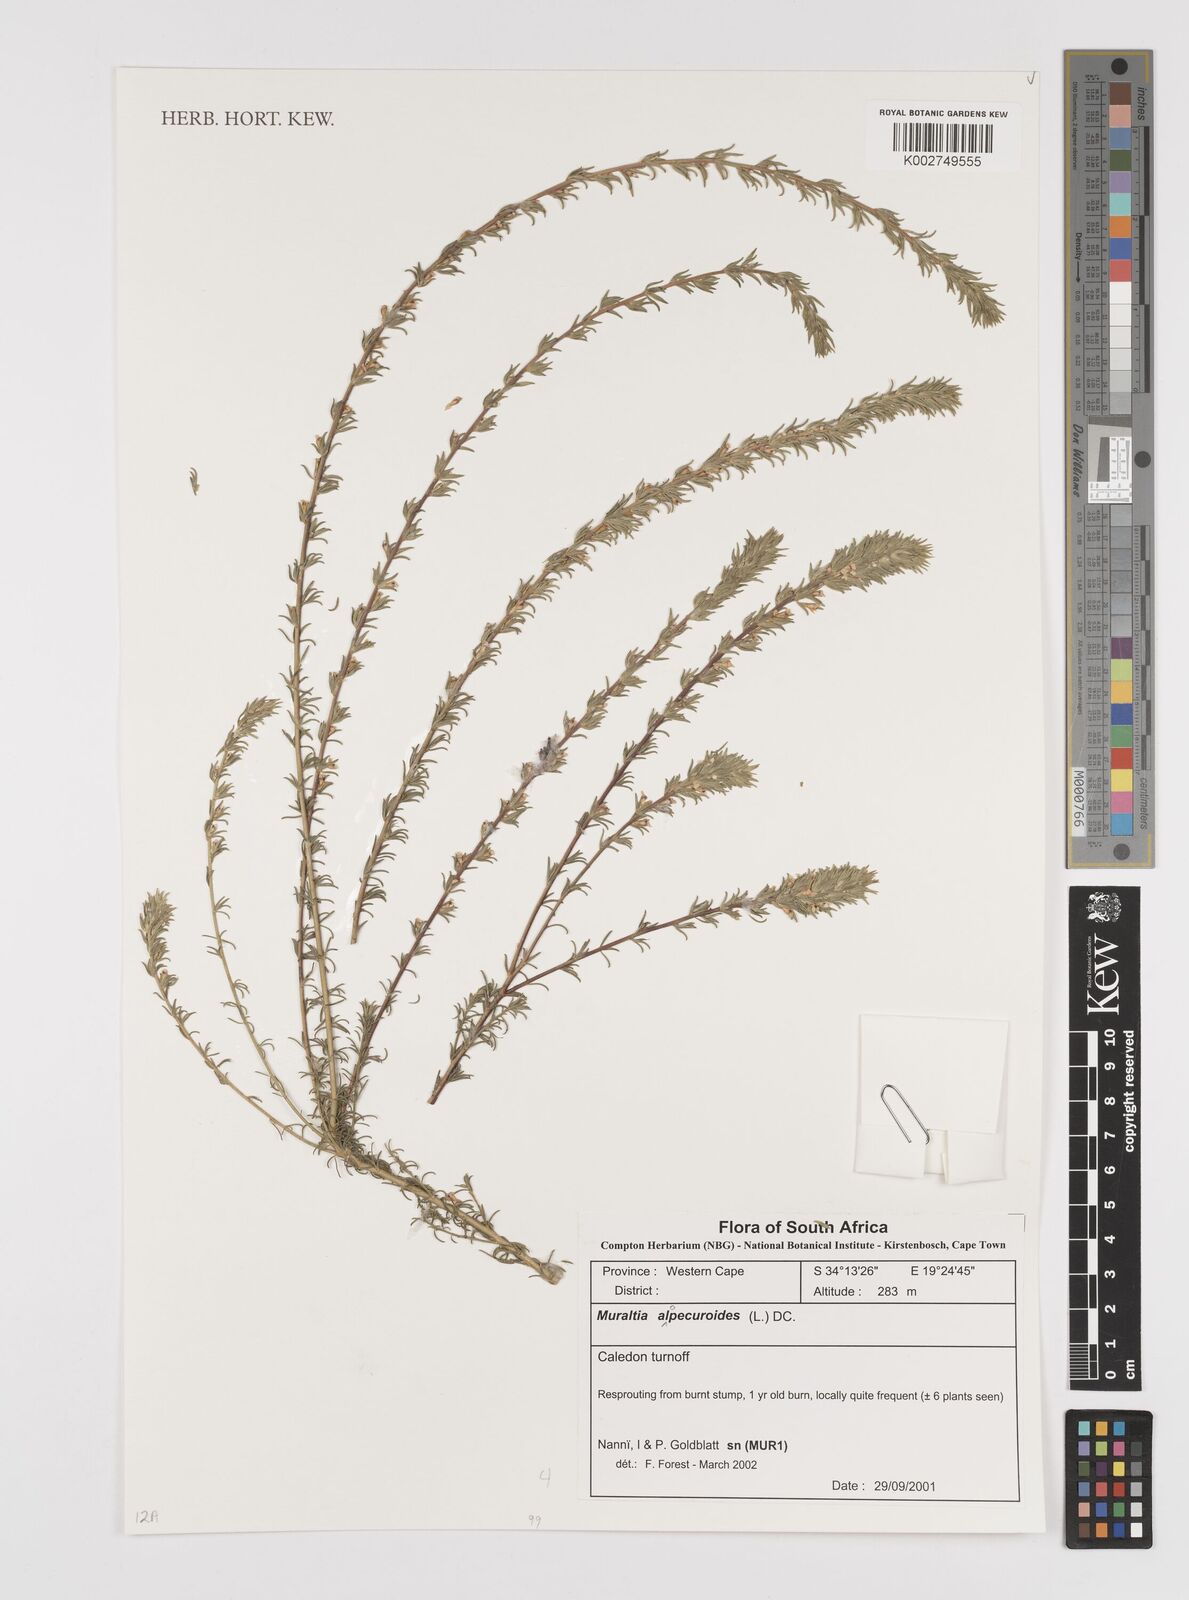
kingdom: Plantae
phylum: Tracheophyta
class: Magnoliopsida
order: Fabales
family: Polygalaceae
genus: Muraltia
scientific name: Muraltia alopecuroides
